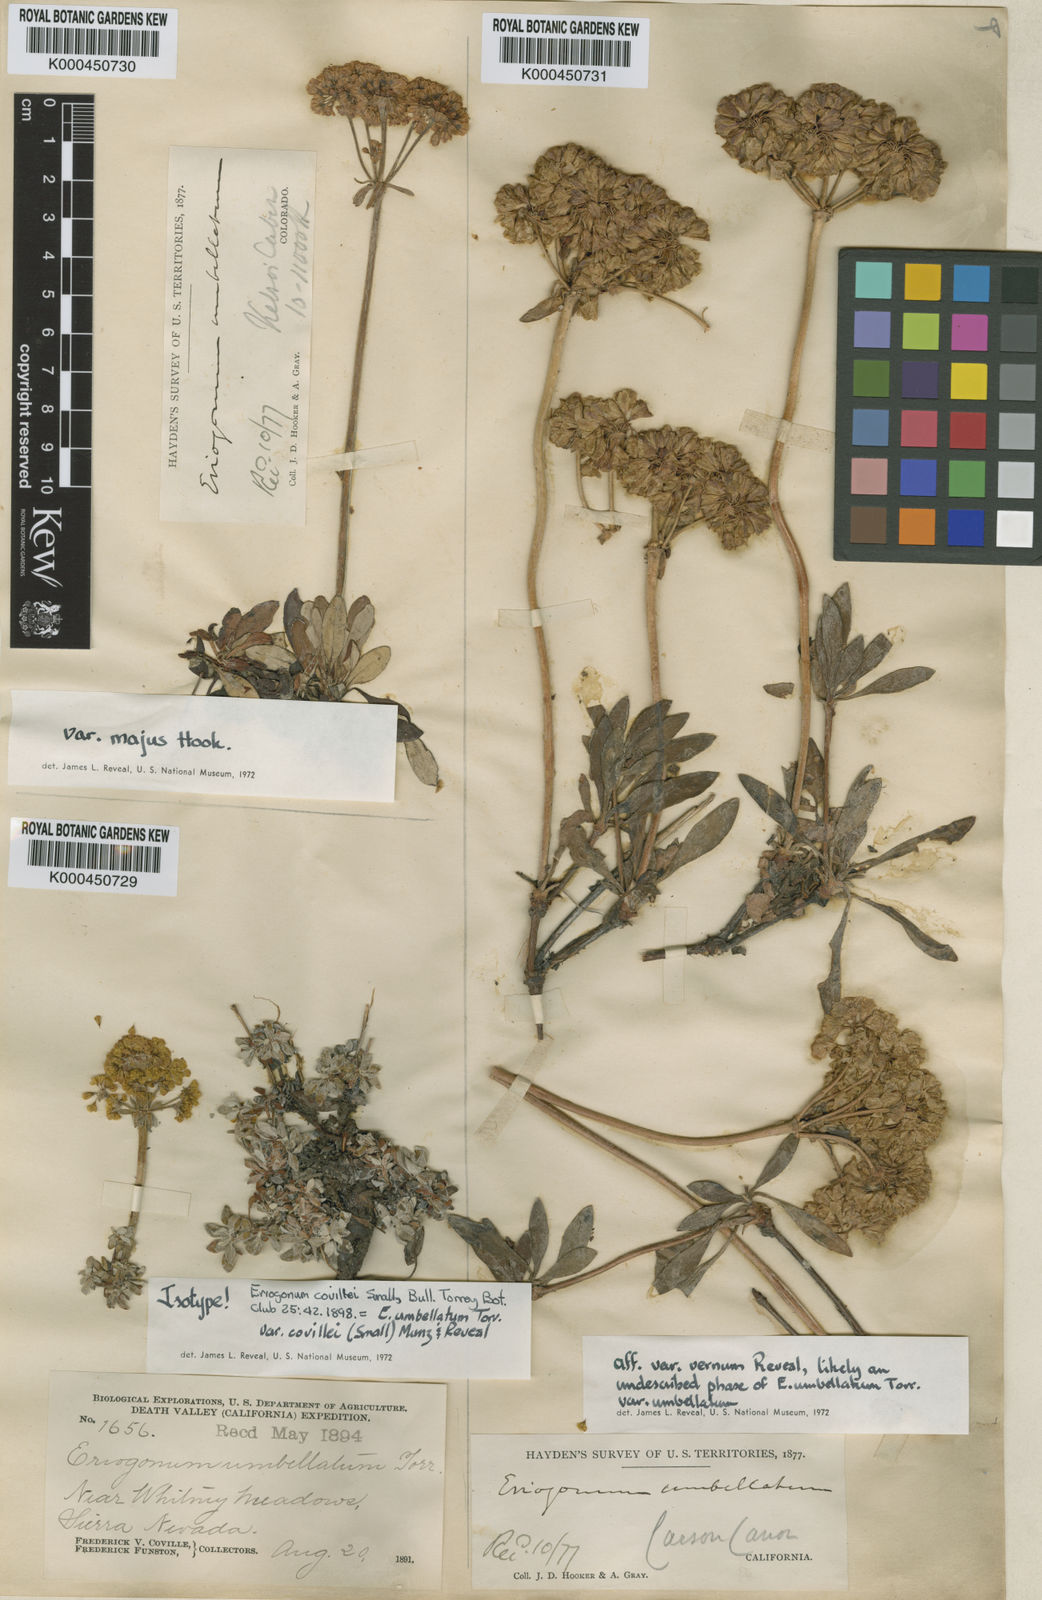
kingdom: Plantae
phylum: Tracheophyta
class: Magnoliopsida
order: Caryophyllales
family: Polygonaceae
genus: Eriogonum
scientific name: Eriogonum umbellatum
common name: Sulfur-buckwheat
